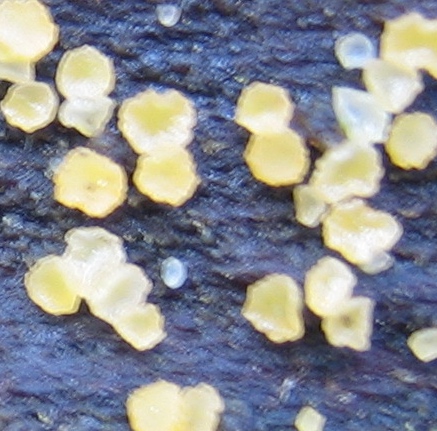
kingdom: Fungi
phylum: Ascomycota
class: Leotiomycetes
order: Helotiales
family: Helotiaceae
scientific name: Helotiaceae
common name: stilkskivefamilien
